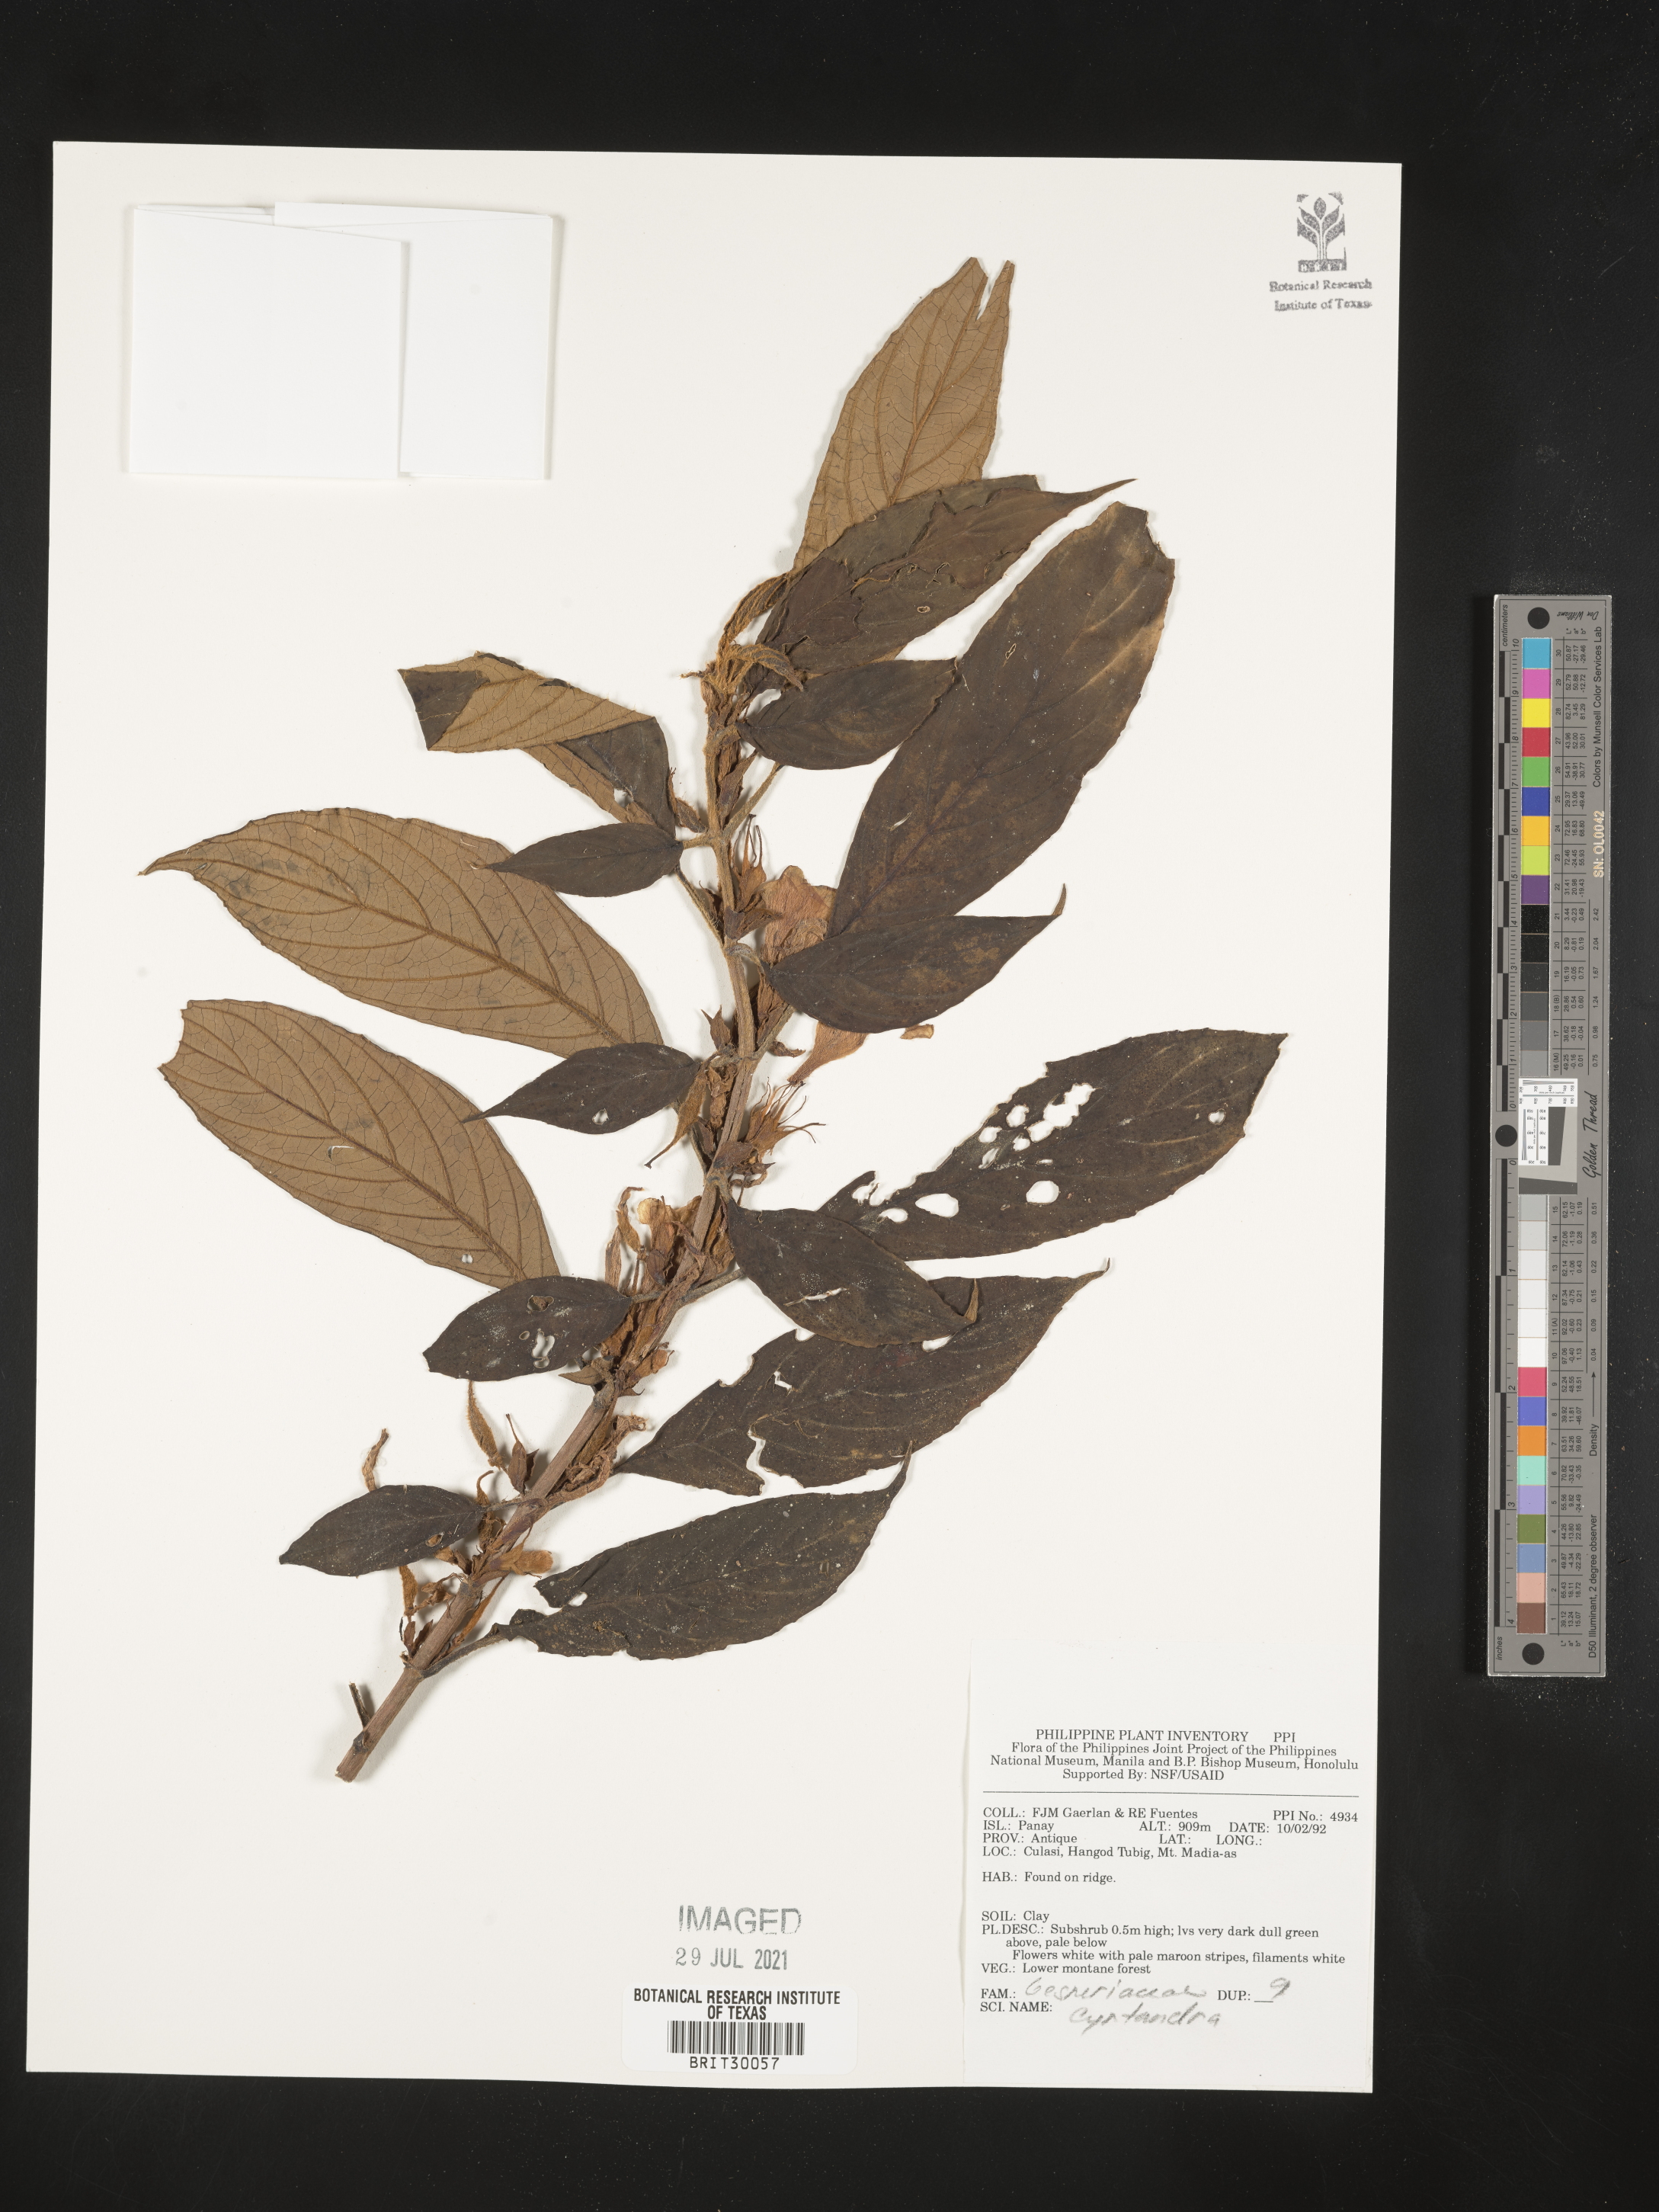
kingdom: Plantae
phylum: Tracheophyta
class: Magnoliopsida
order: Lamiales
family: Gesneriaceae
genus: Cyrtandra
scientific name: Cyrtandra
